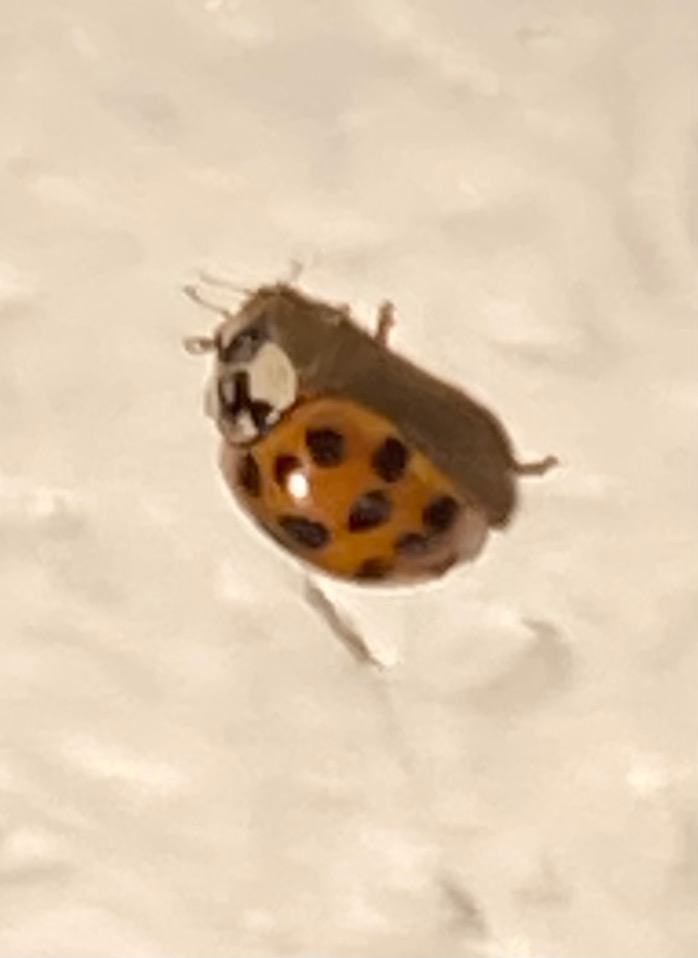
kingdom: Animalia
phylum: Arthropoda
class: Insecta
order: Coleoptera
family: Coccinellidae
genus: Harmonia
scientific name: Harmonia axyridis
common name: Harlekinmariehøne
